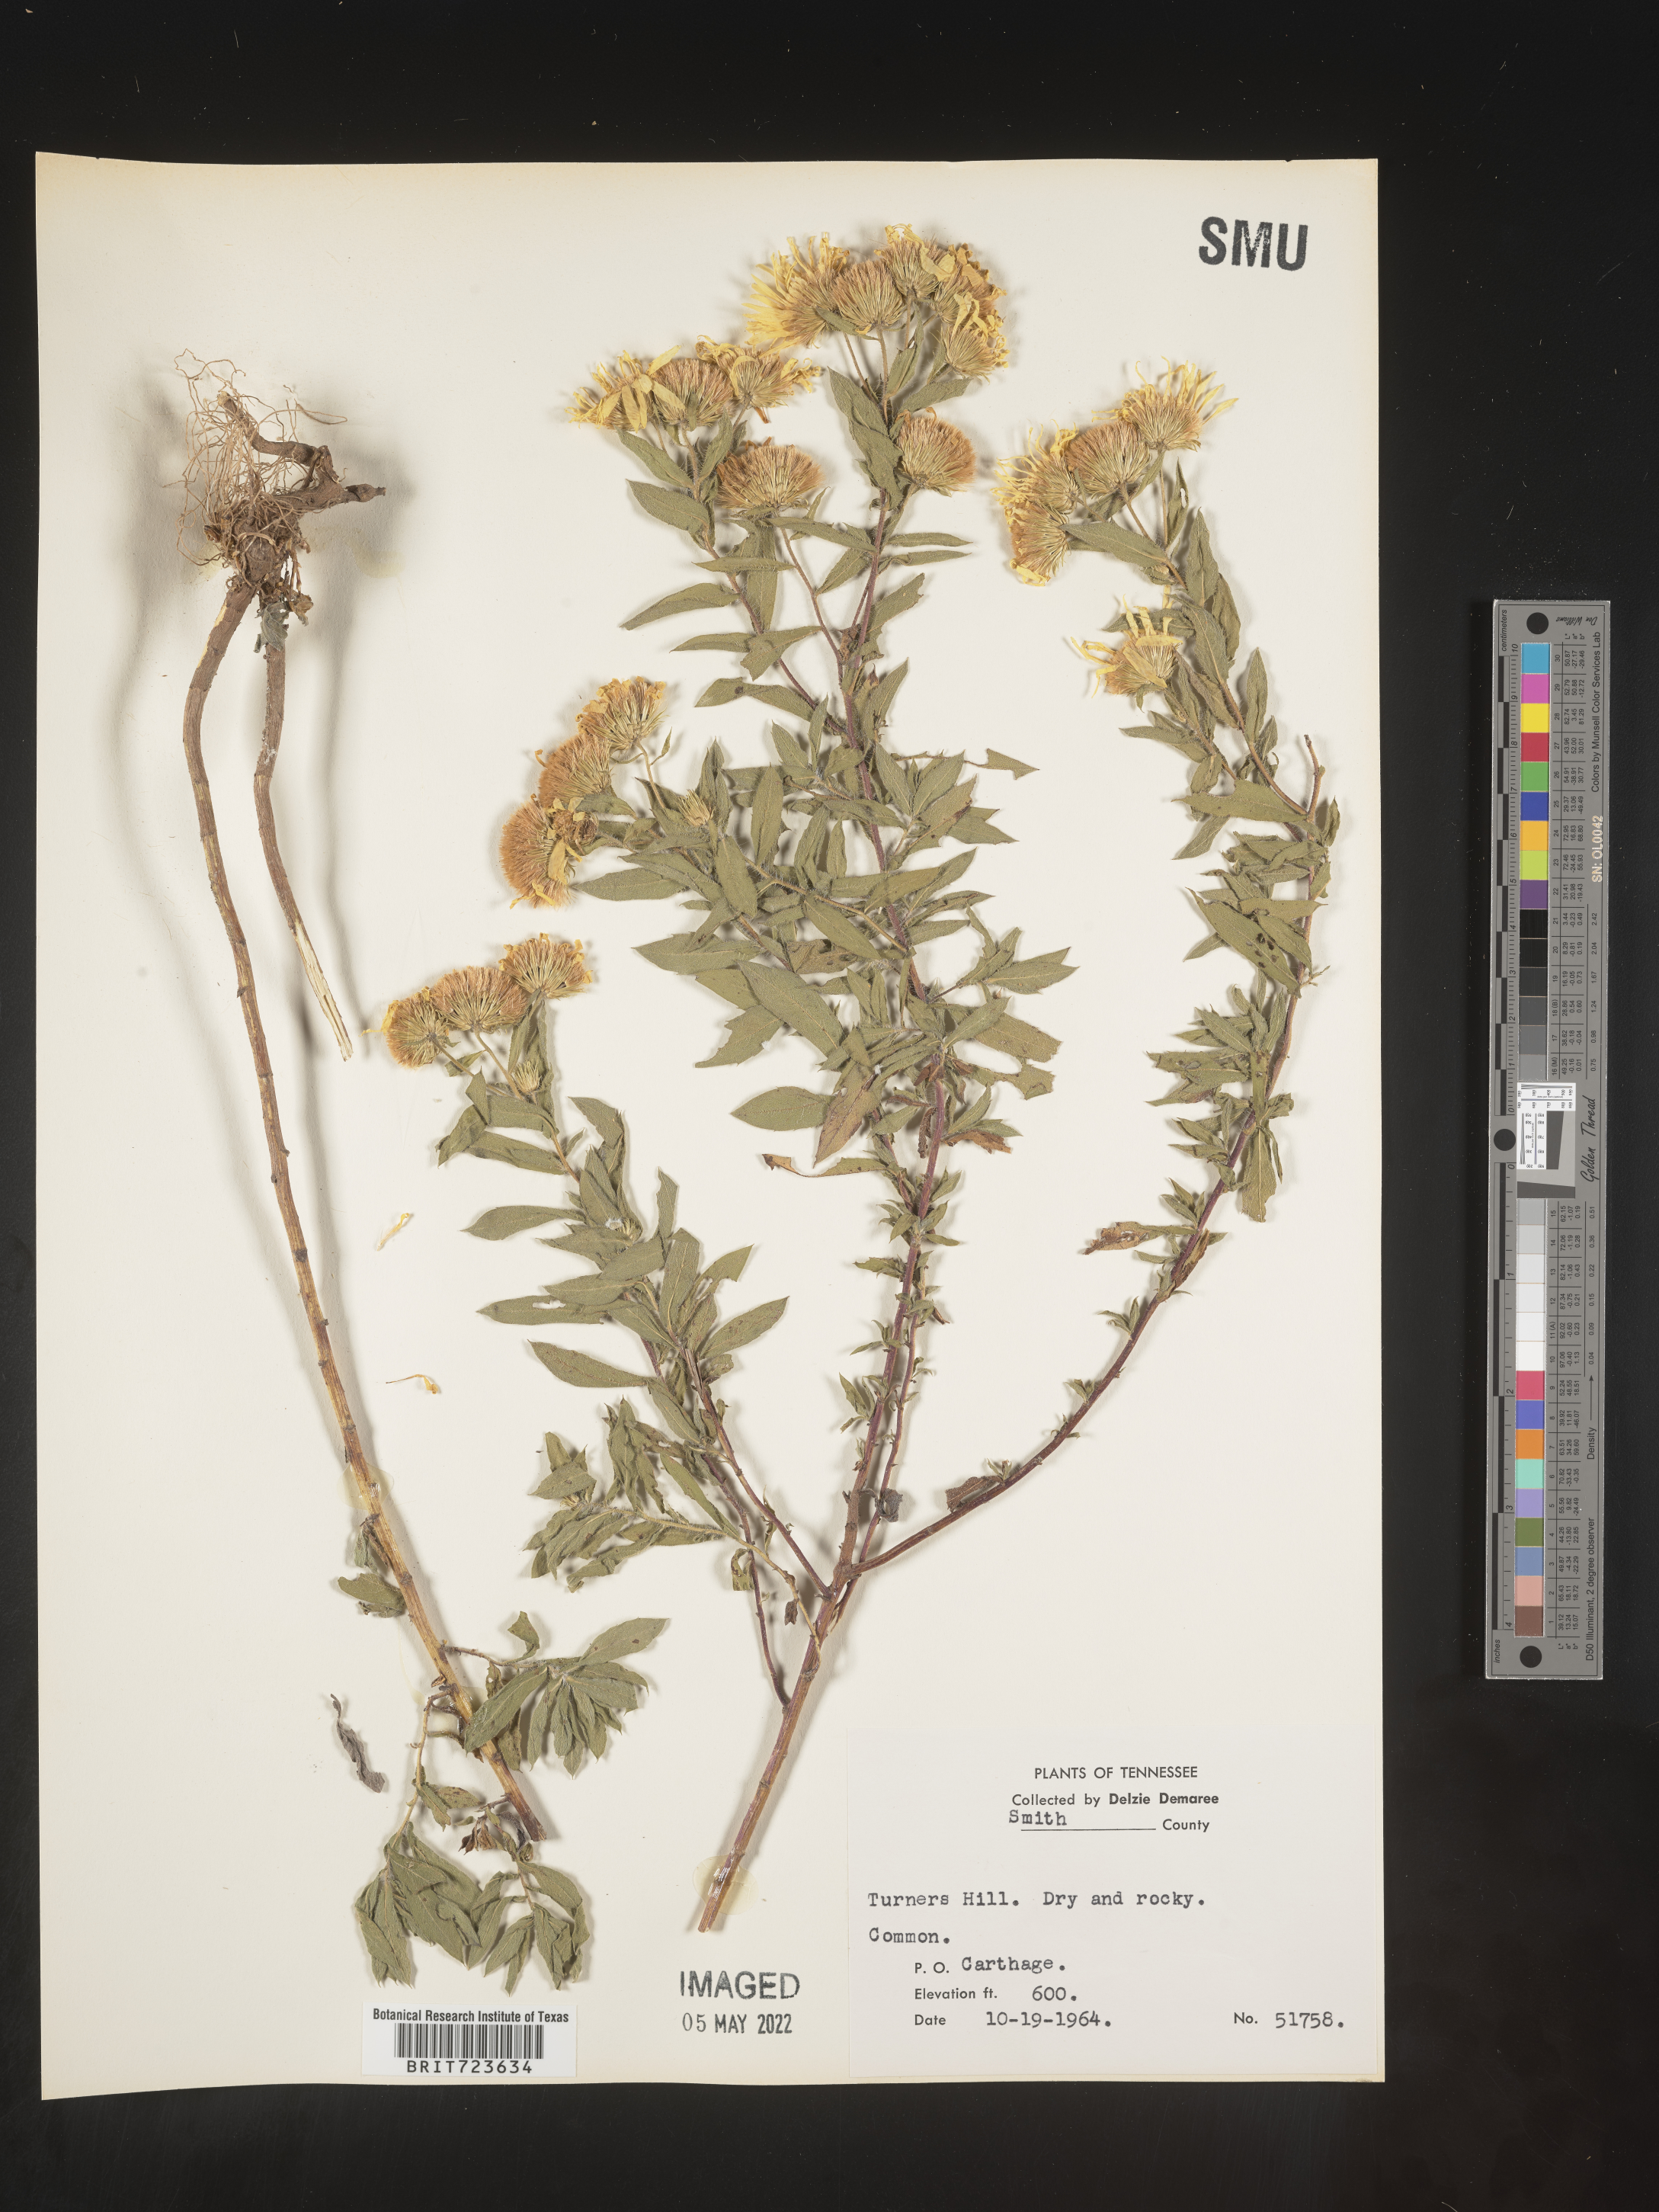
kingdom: Plantae
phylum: Tracheophyta
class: Magnoliopsida
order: Asterales
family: Asteraceae
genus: Heterotheca
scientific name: Heterotheca camporum
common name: Prairie golden-aster
